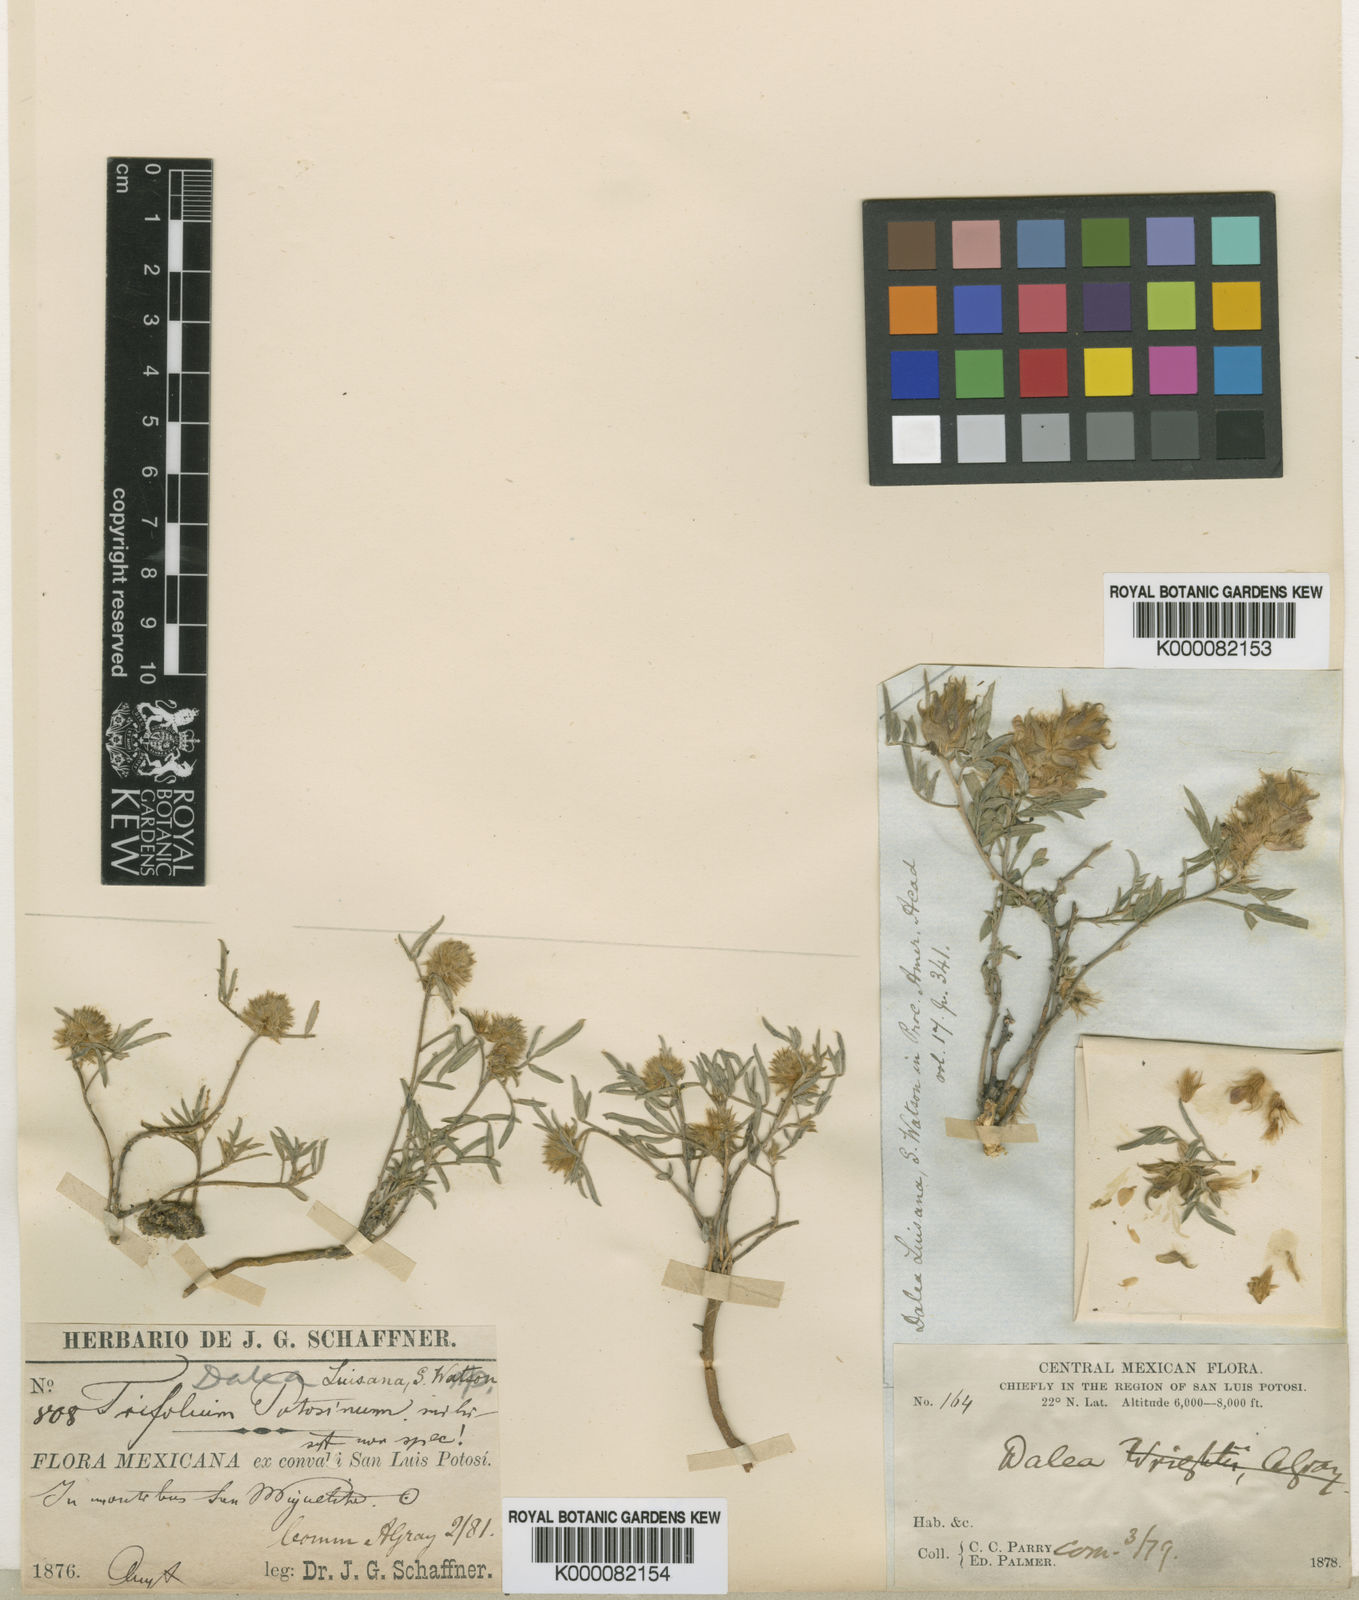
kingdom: Plantae
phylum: Tracheophyta
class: Magnoliopsida
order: Fabales
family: Fabaceae
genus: Dalea
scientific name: Dalea luisana
